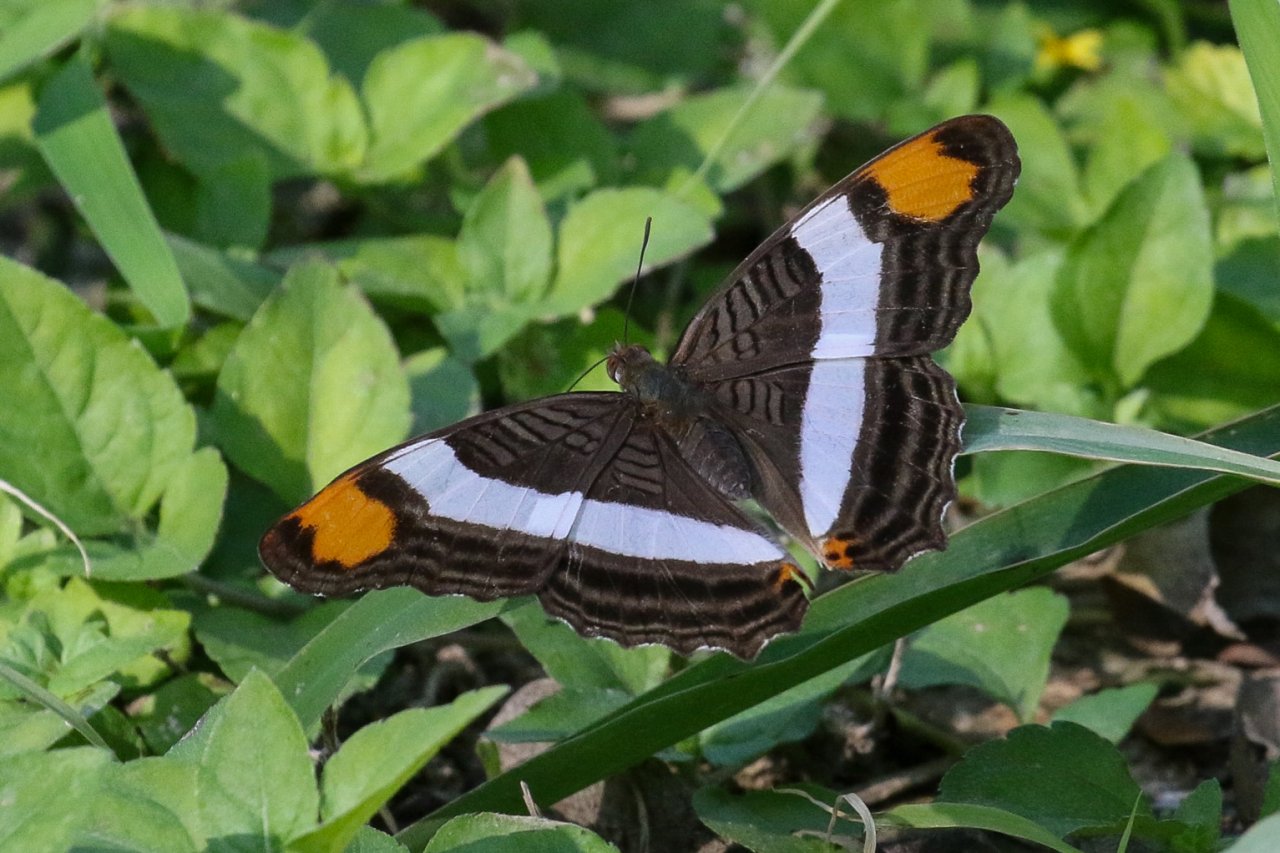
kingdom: Animalia
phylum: Arthropoda
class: Insecta
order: Lepidoptera
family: Nymphalidae
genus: Limenitis
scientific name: Limenitis fessonia
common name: Band-celled Sister
